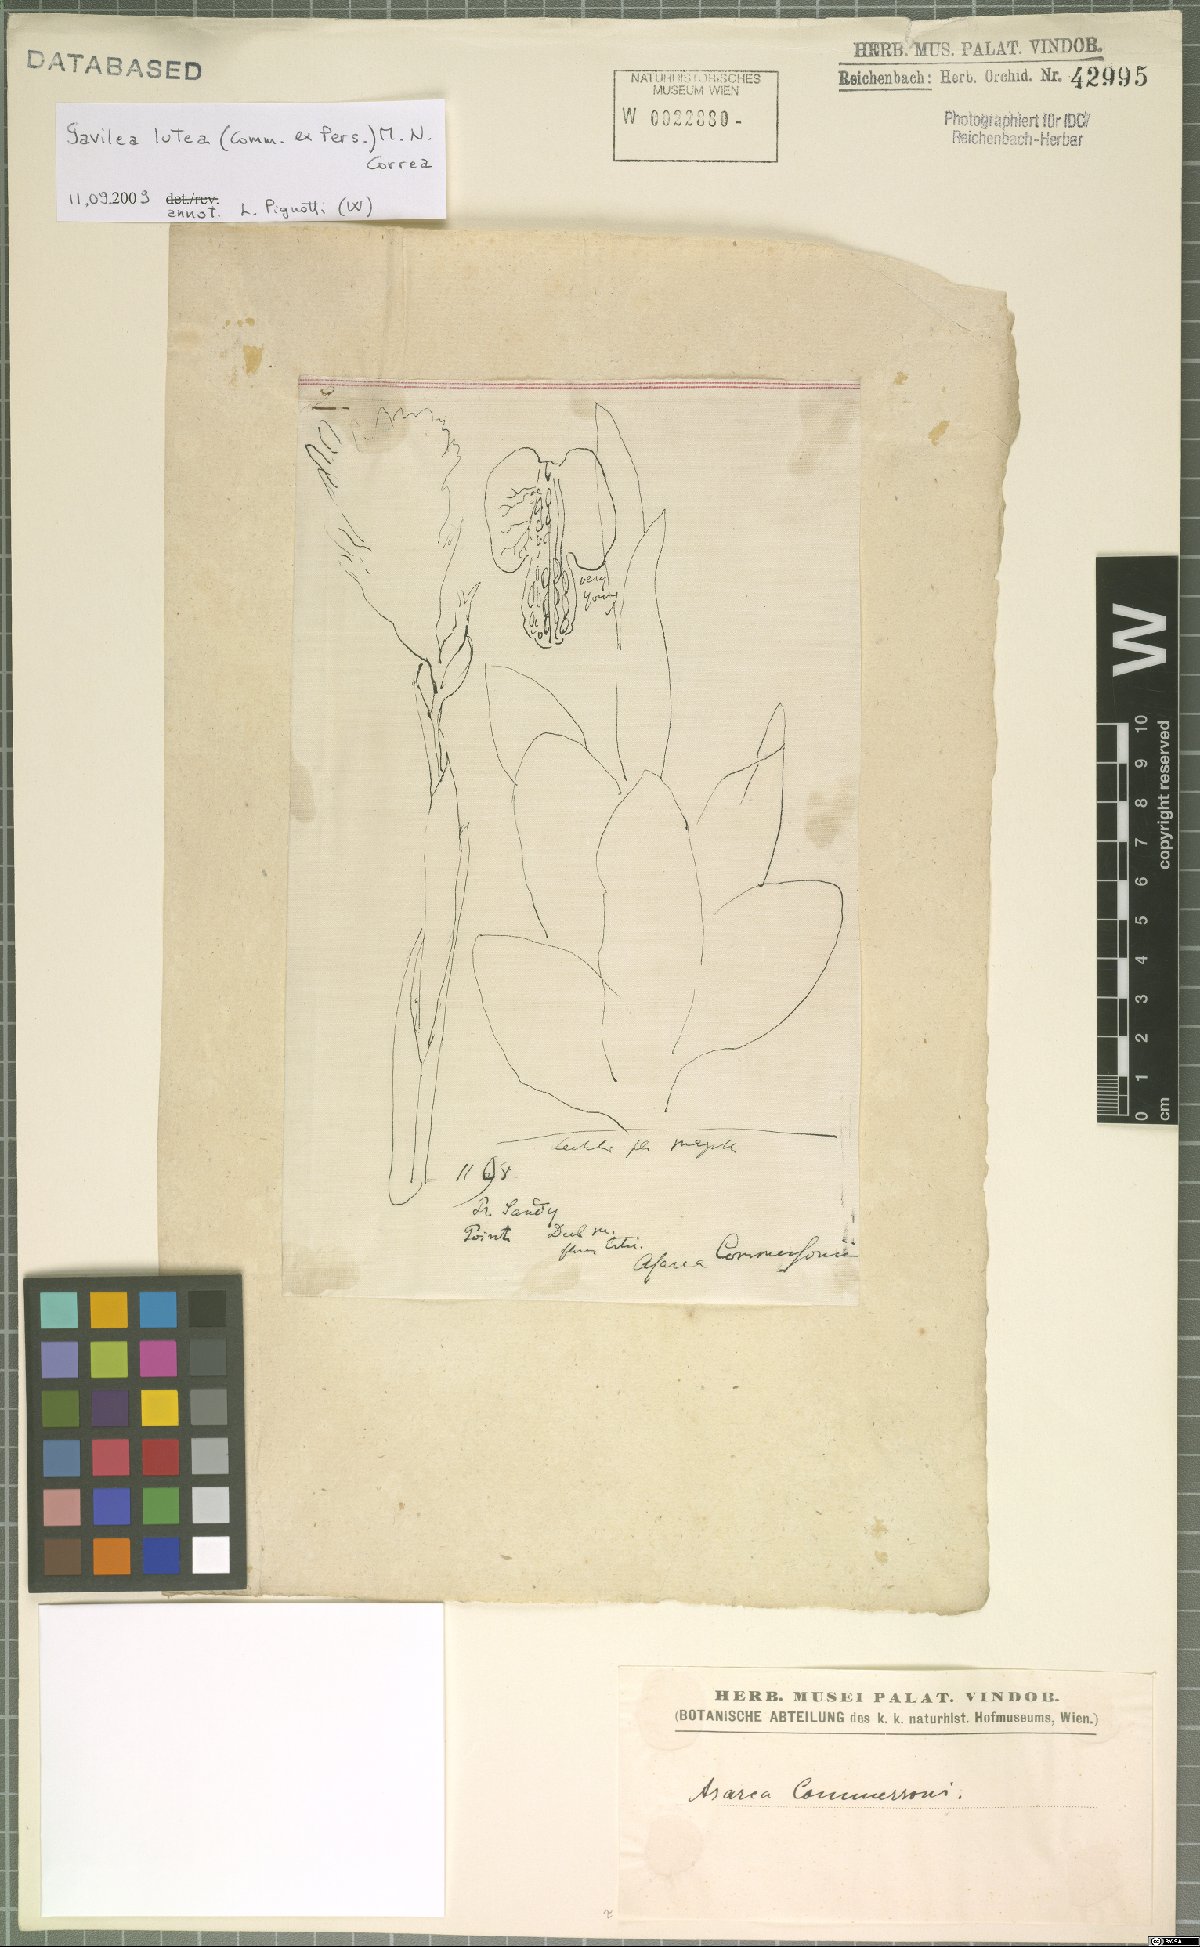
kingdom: Plantae
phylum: Tracheophyta
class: Liliopsida
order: Asparagales
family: Orchidaceae
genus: Gavilea
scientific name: Gavilea lutea
